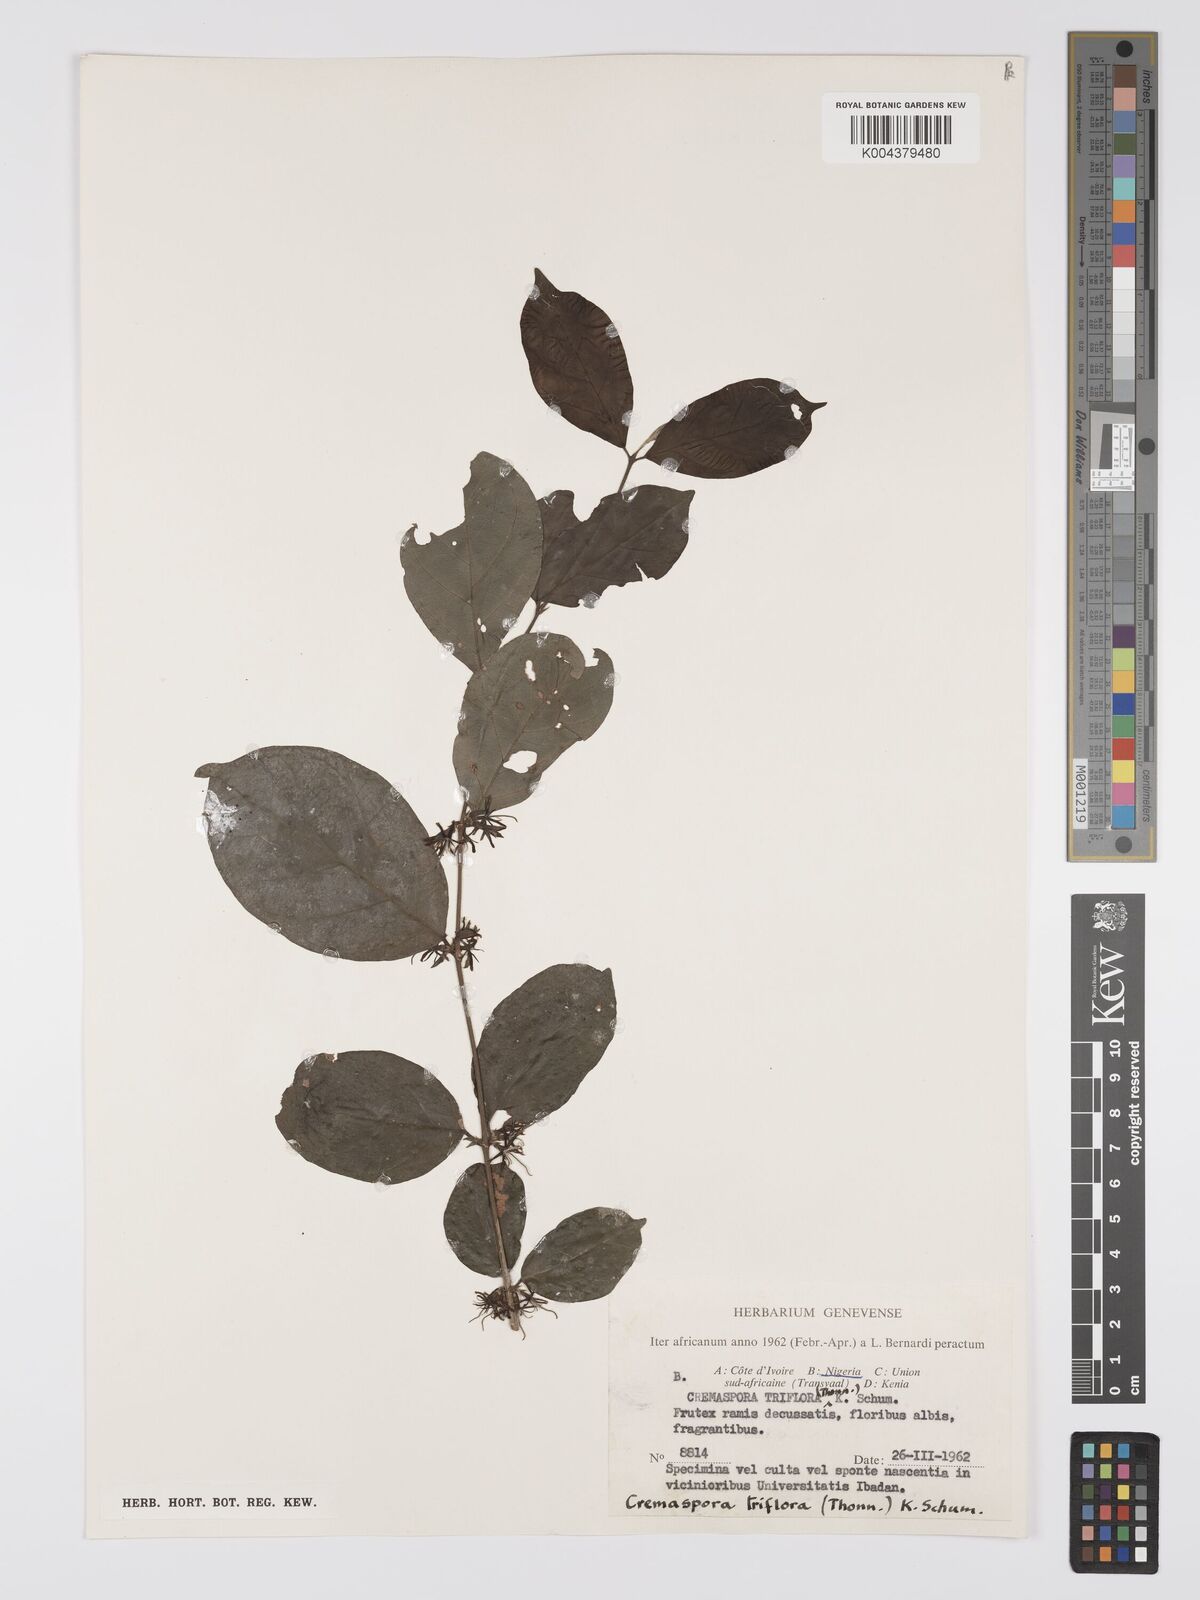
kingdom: Plantae
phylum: Tracheophyta
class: Magnoliopsida
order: Gentianales
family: Rubiaceae
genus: Cremaspora
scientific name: Cremaspora triflora
